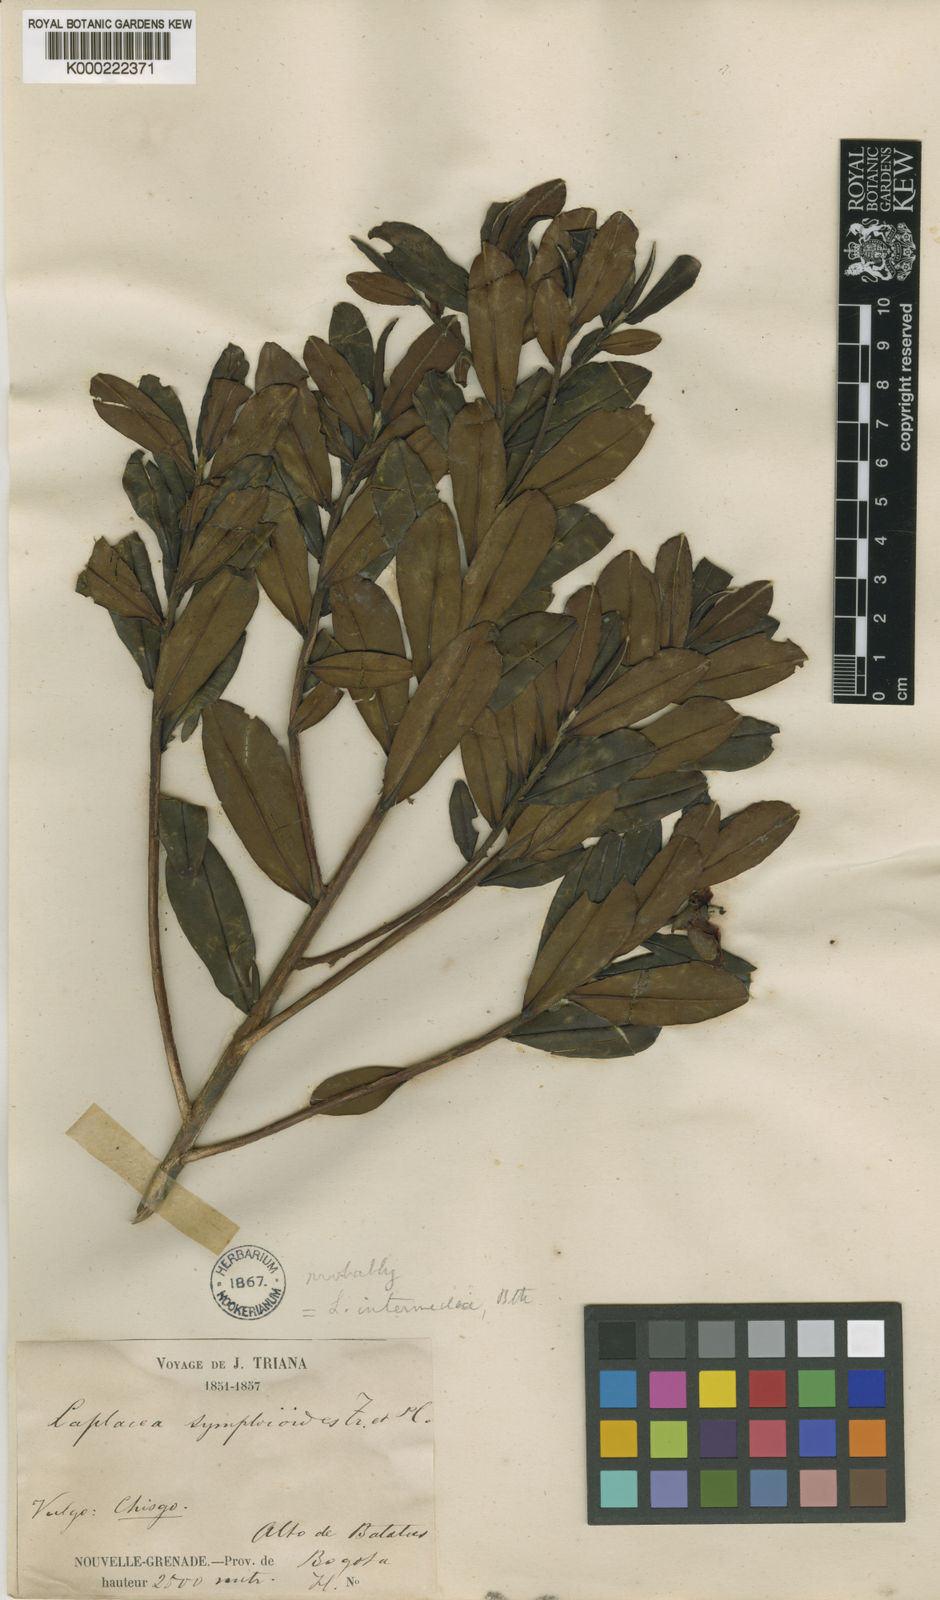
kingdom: Plantae
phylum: Tracheophyta
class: Magnoliopsida
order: Ericales
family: Theaceae
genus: Gordonia
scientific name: Gordonia fruticosa
